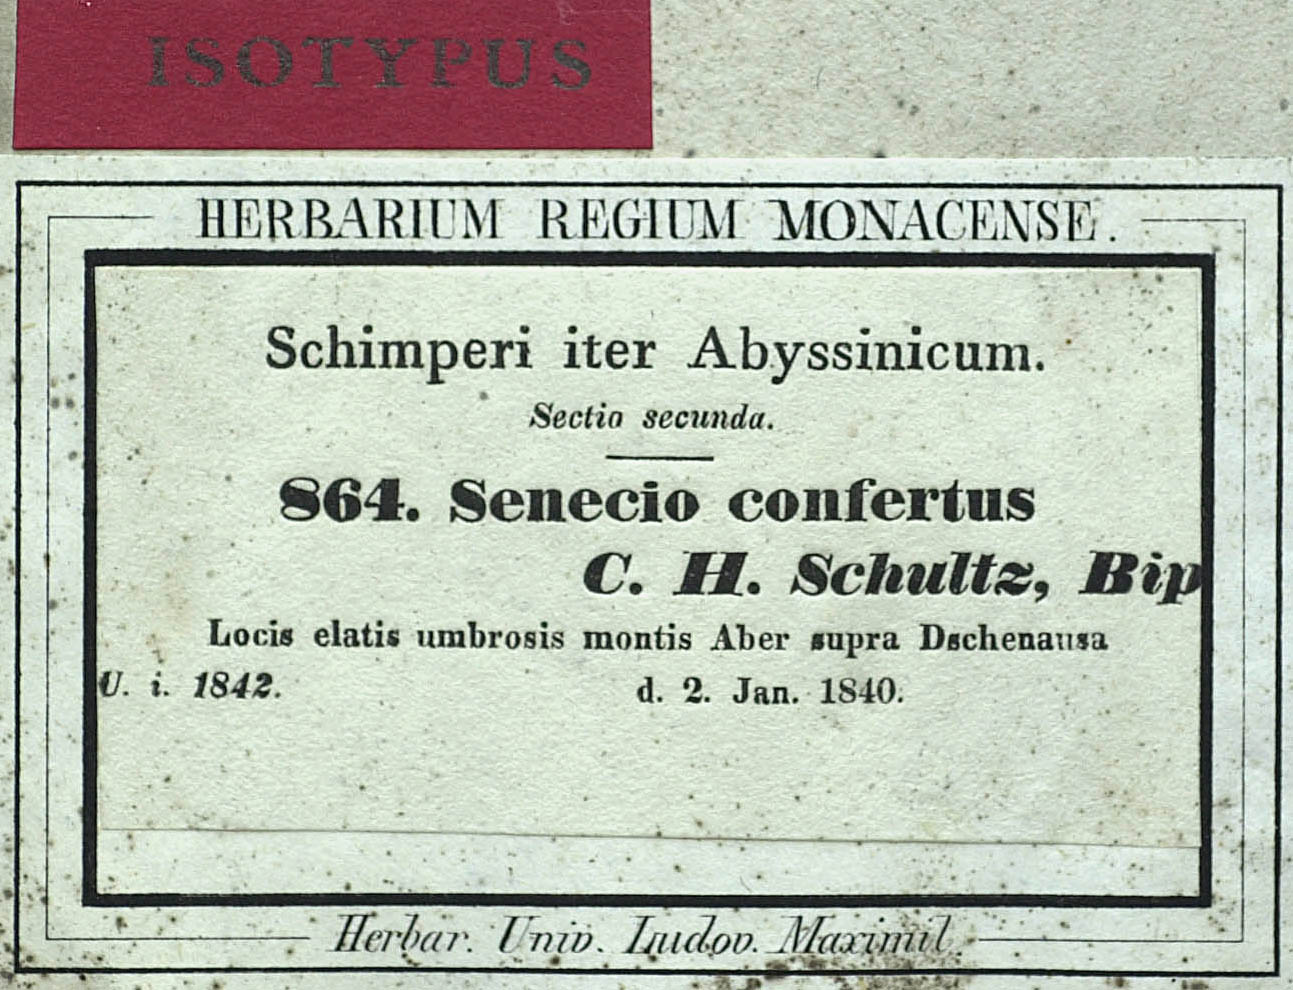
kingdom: Plantae
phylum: Tracheophyta
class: Magnoliopsida
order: Asterales
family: Asteraceae
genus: Senecio
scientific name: Senecio confertus
